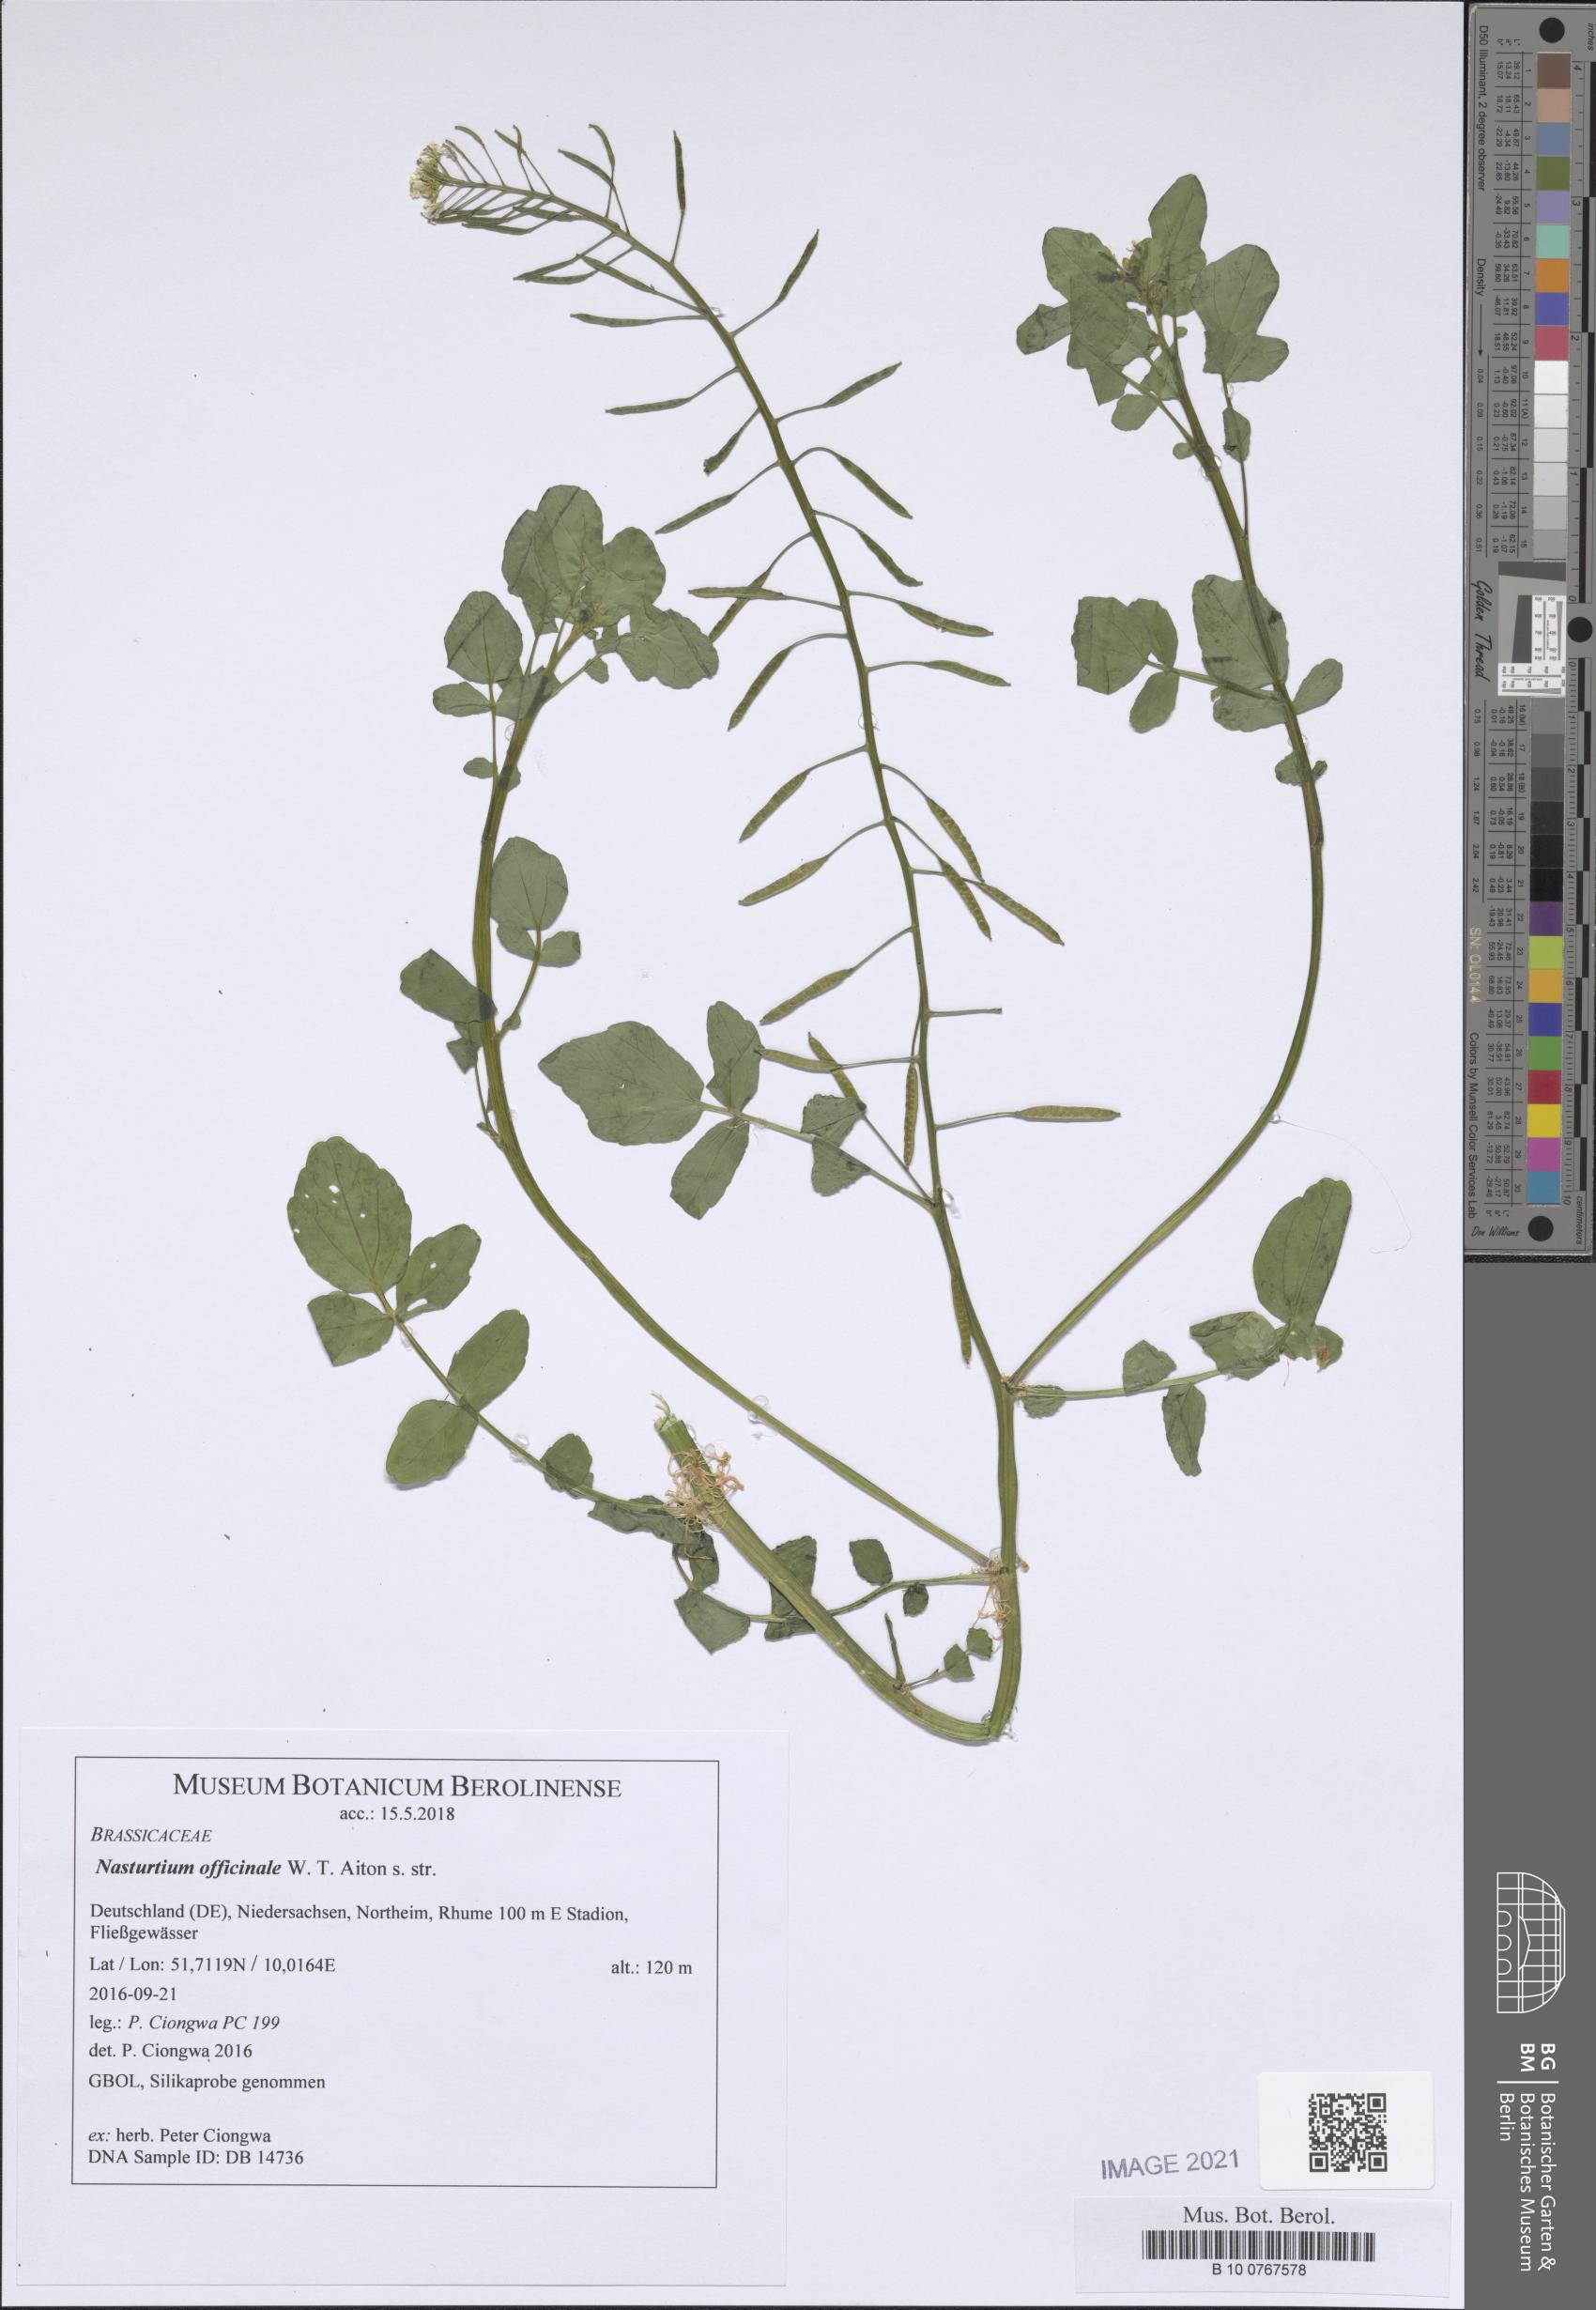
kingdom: Plantae
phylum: Tracheophyta
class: Magnoliopsida
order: Brassicales
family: Brassicaceae
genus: Nasturtium
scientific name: Nasturtium officinale
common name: Watercress
